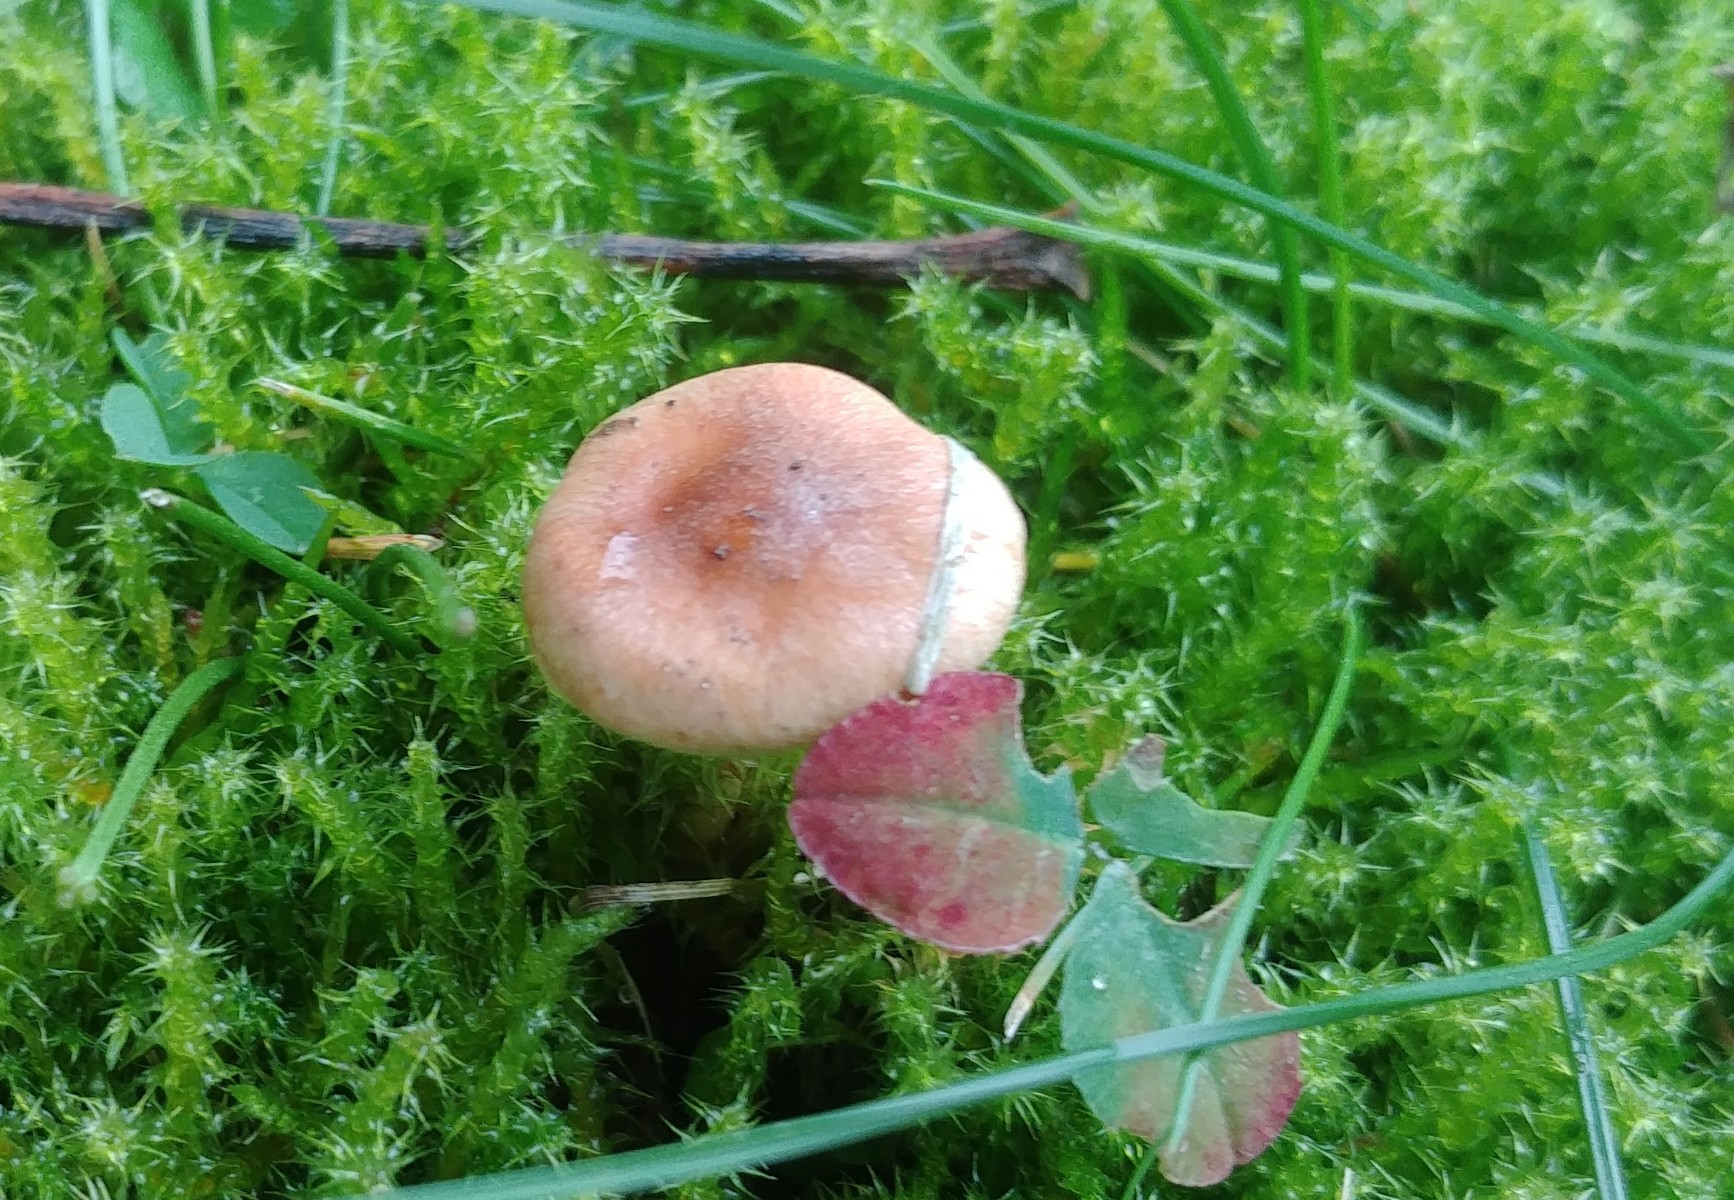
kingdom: Fungi
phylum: Basidiomycota
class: Agaricomycetes
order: Agaricales
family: Hymenogastraceae
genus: Hebeloma
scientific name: Hebeloma
